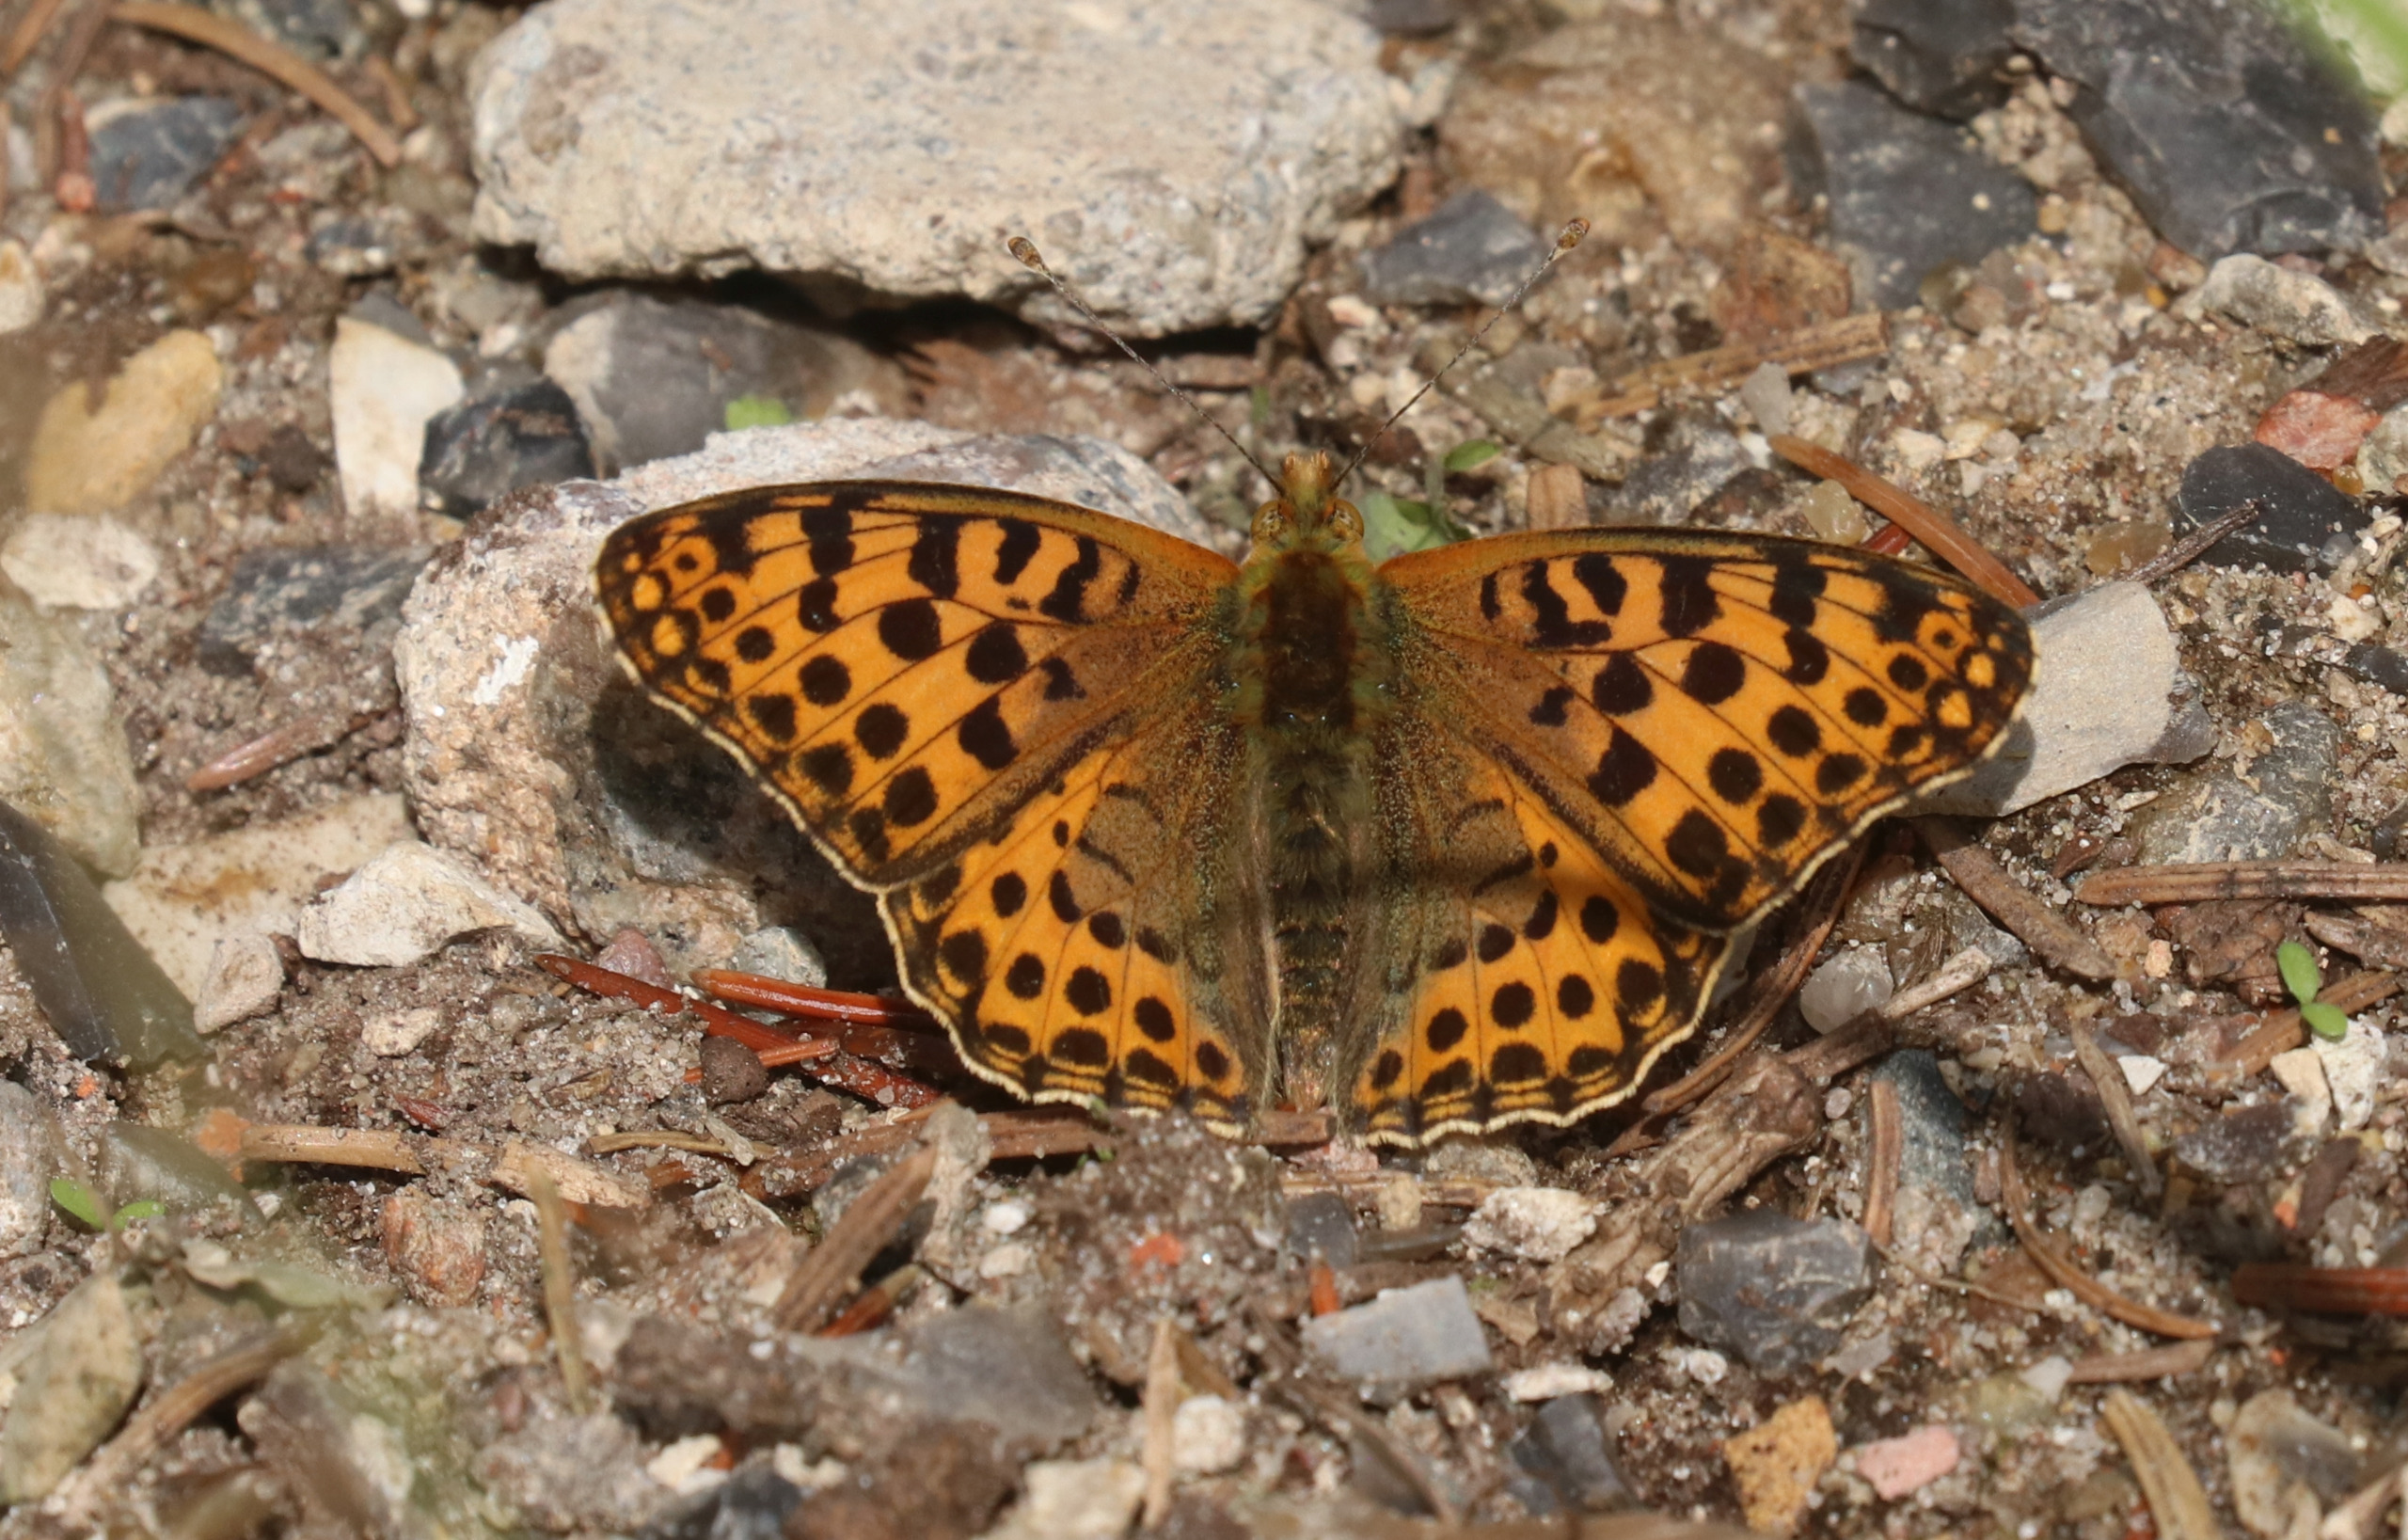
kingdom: Animalia
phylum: Arthropoda
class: Insecta
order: Lepidoptera
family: Nymphalidae
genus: Issoria
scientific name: Issoria lathonia
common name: Storplettet perlemorsommerfugl
